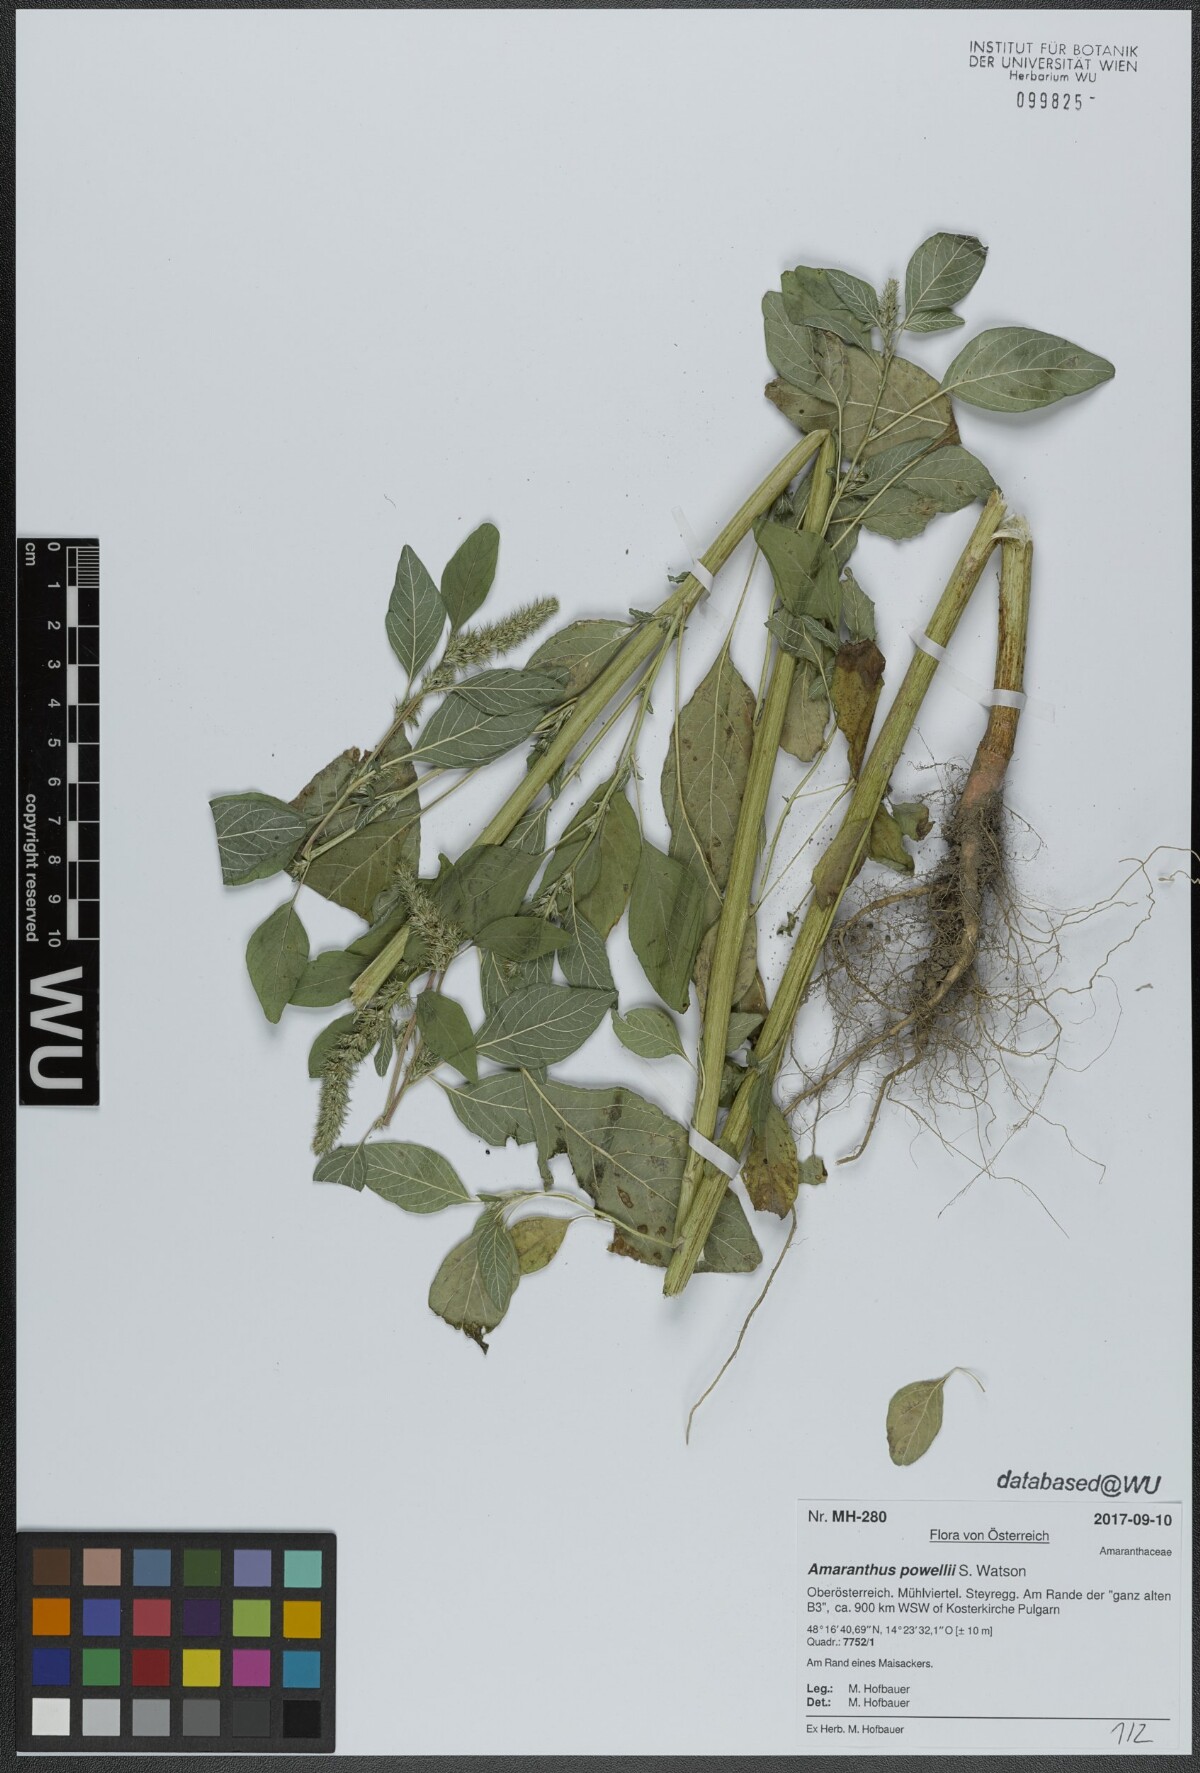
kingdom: Plantae
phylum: Tracheophyta
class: Magnoliopsida
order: Caryophyllales
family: Amaranthaceae
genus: Amaranthus
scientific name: Amaranthus powellii
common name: Powell's amaranth
